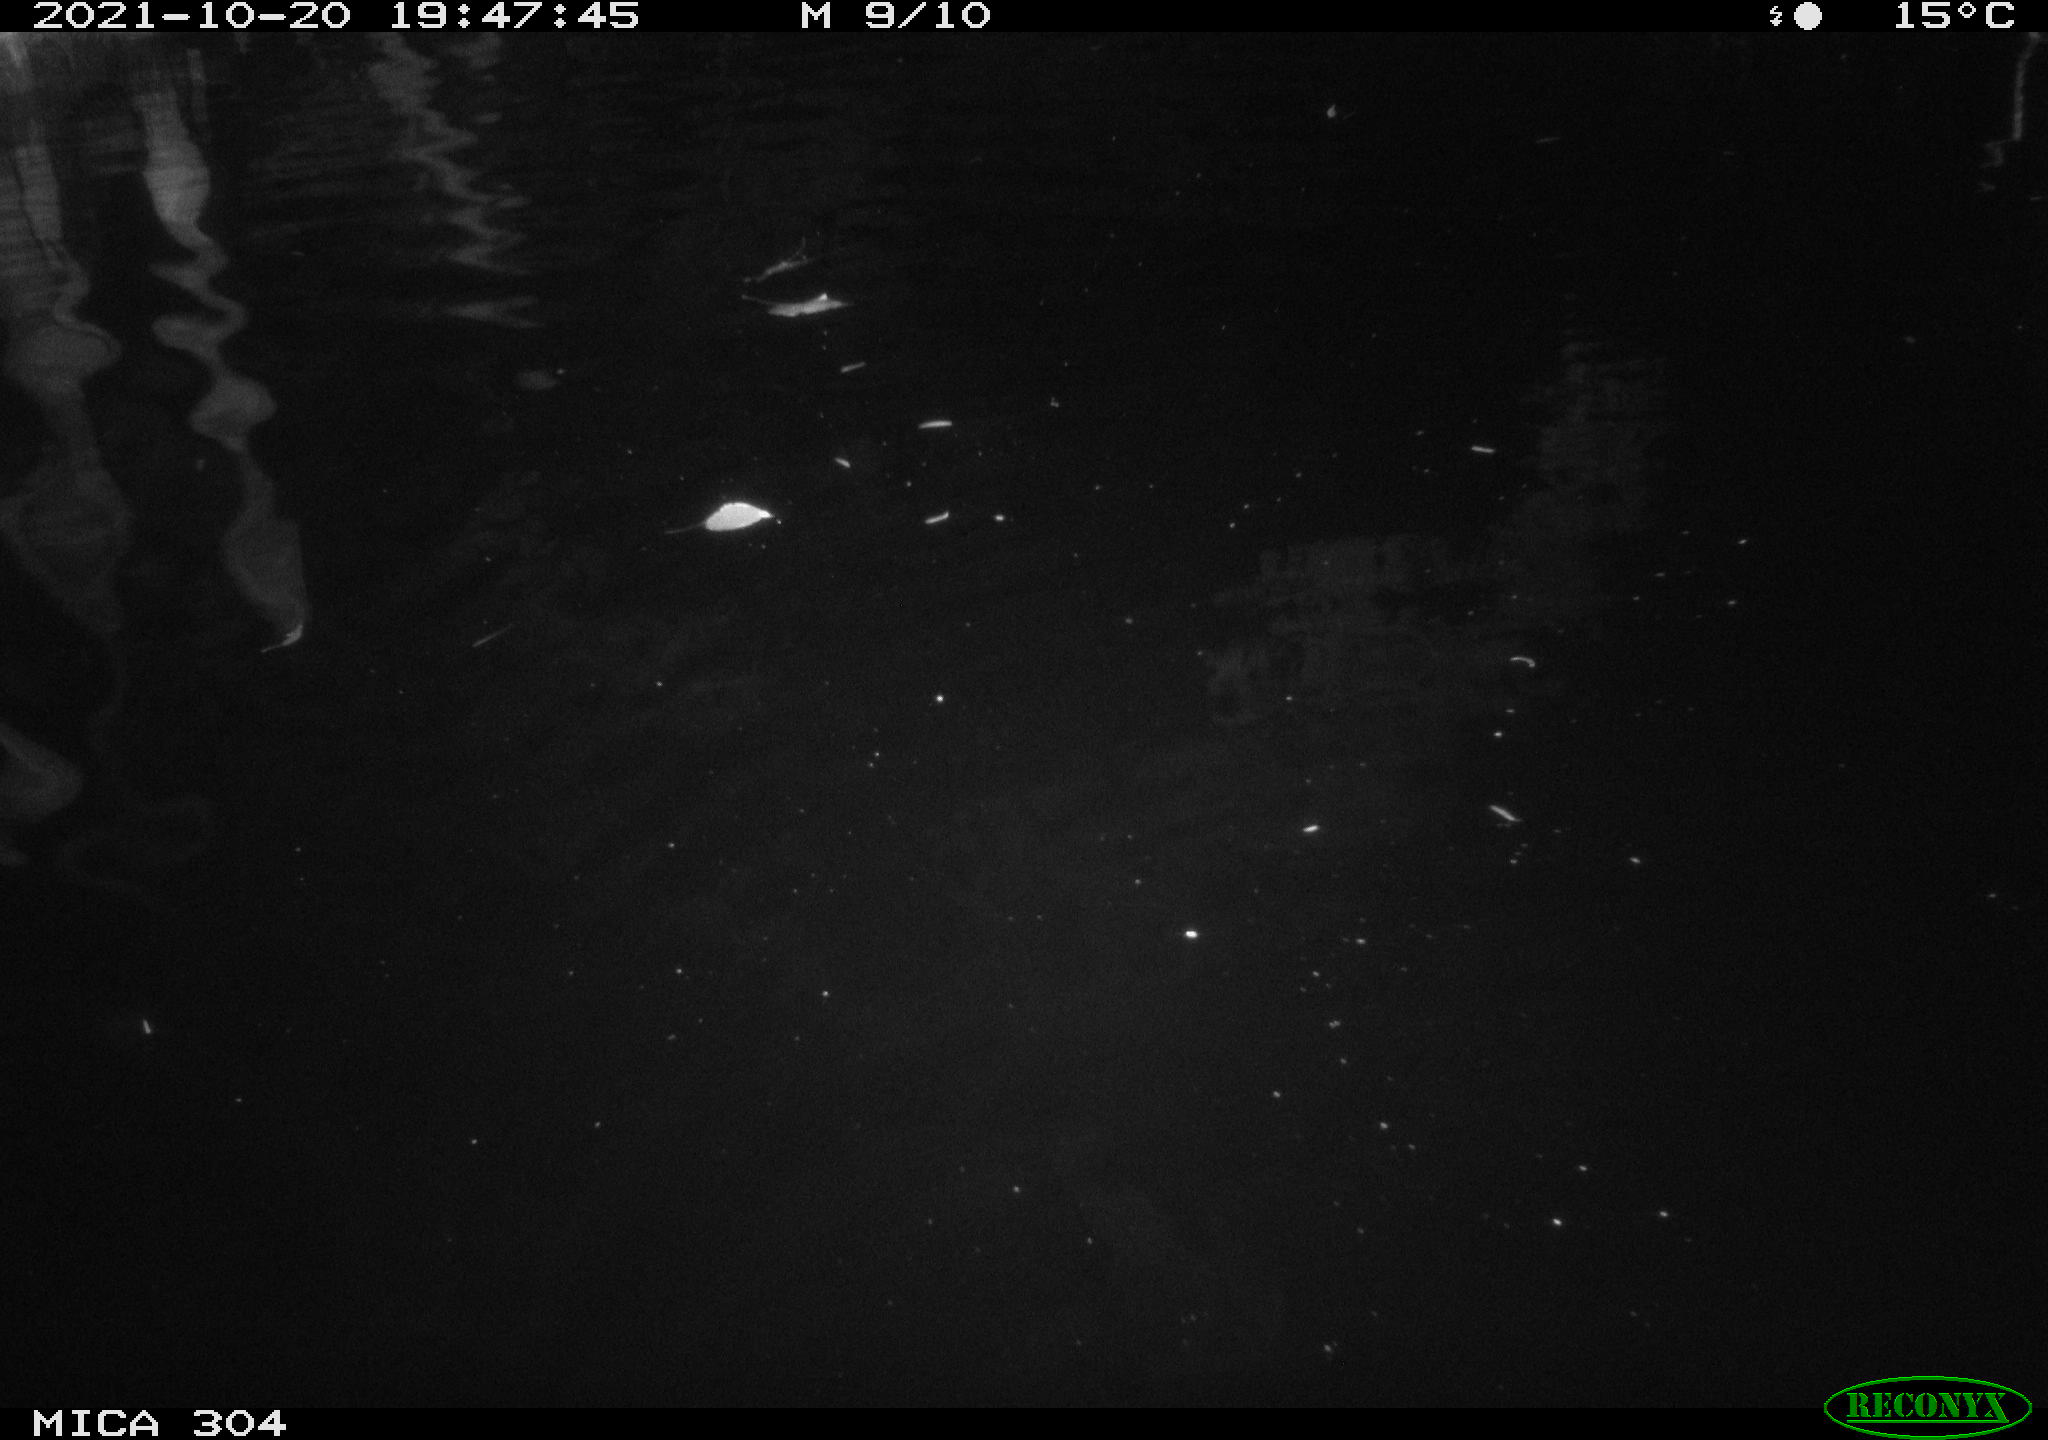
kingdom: Animalia
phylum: Chordata
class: Mammalia
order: Rodentia
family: Cricetidae
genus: Ondatra
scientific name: Ondatra zibethicus
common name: Muskrat
